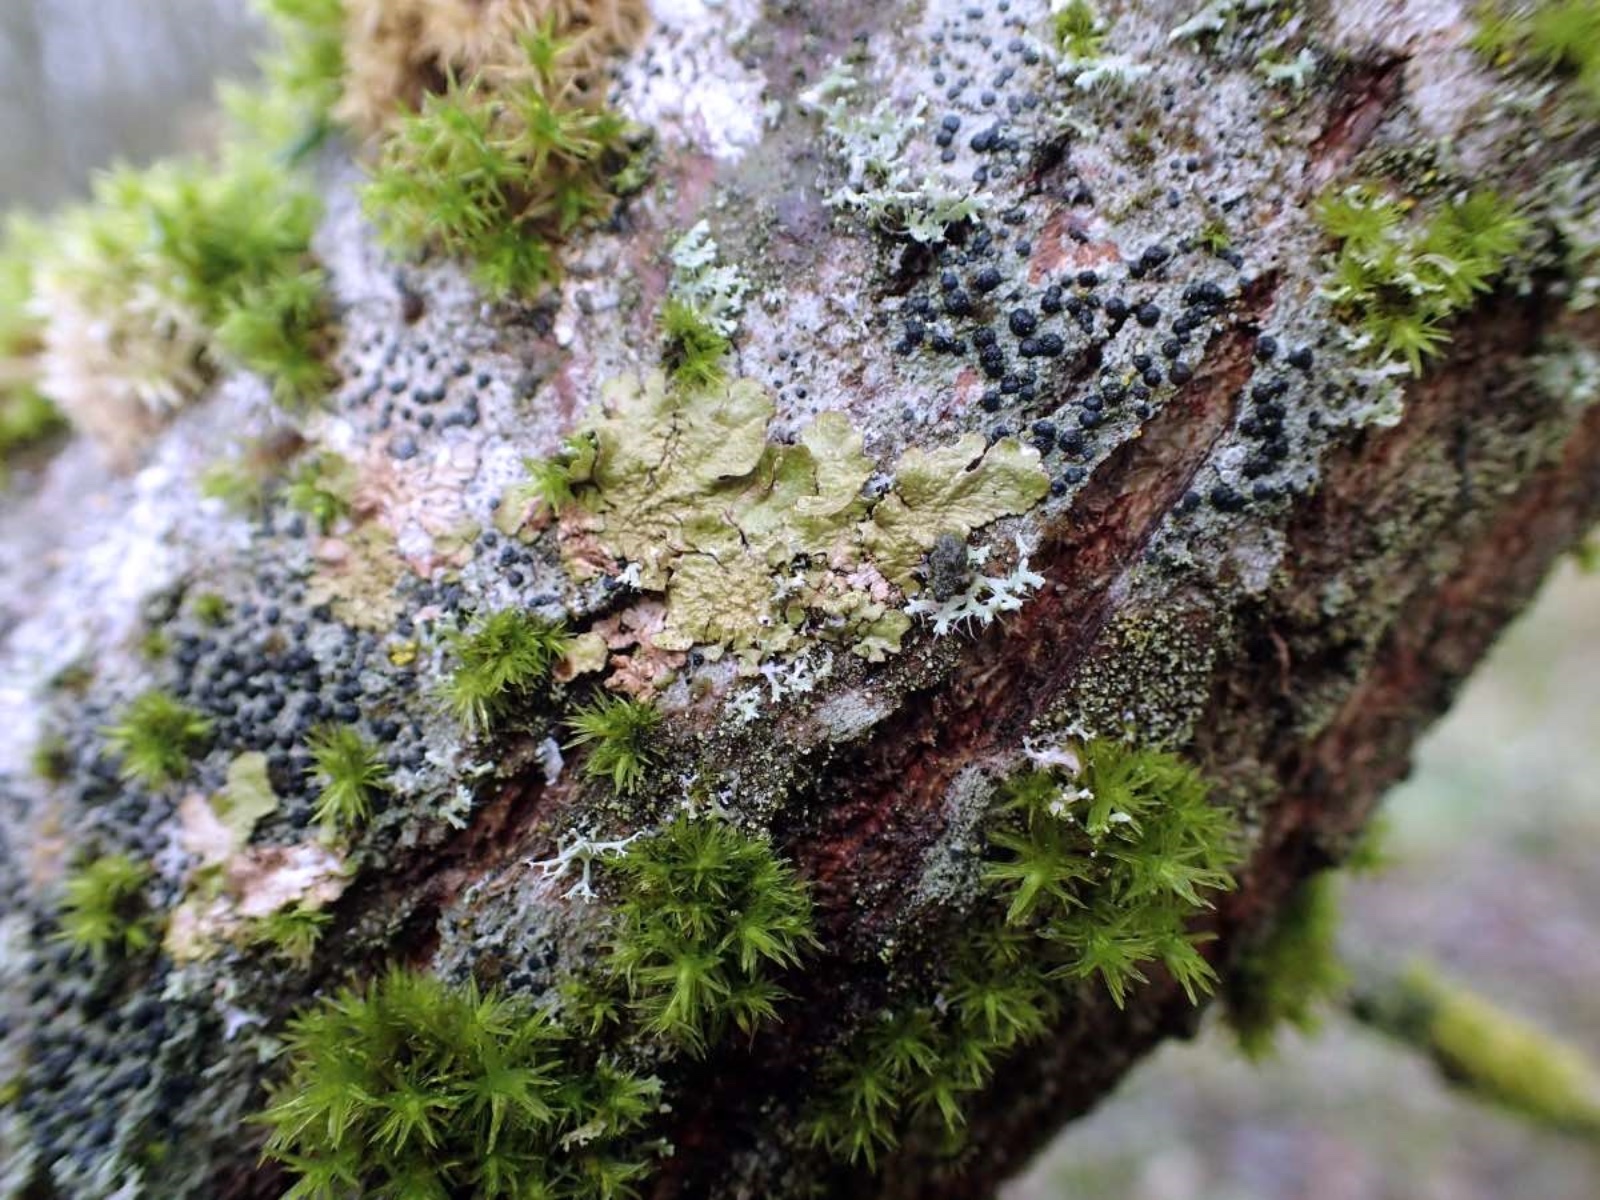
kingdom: Fungi
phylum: Ascomycota
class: Lecanoromycetes
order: Lecanorales
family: Parmeliaceae
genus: Melanelixia
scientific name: Melanelixia glabratula
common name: glinsende skållav
